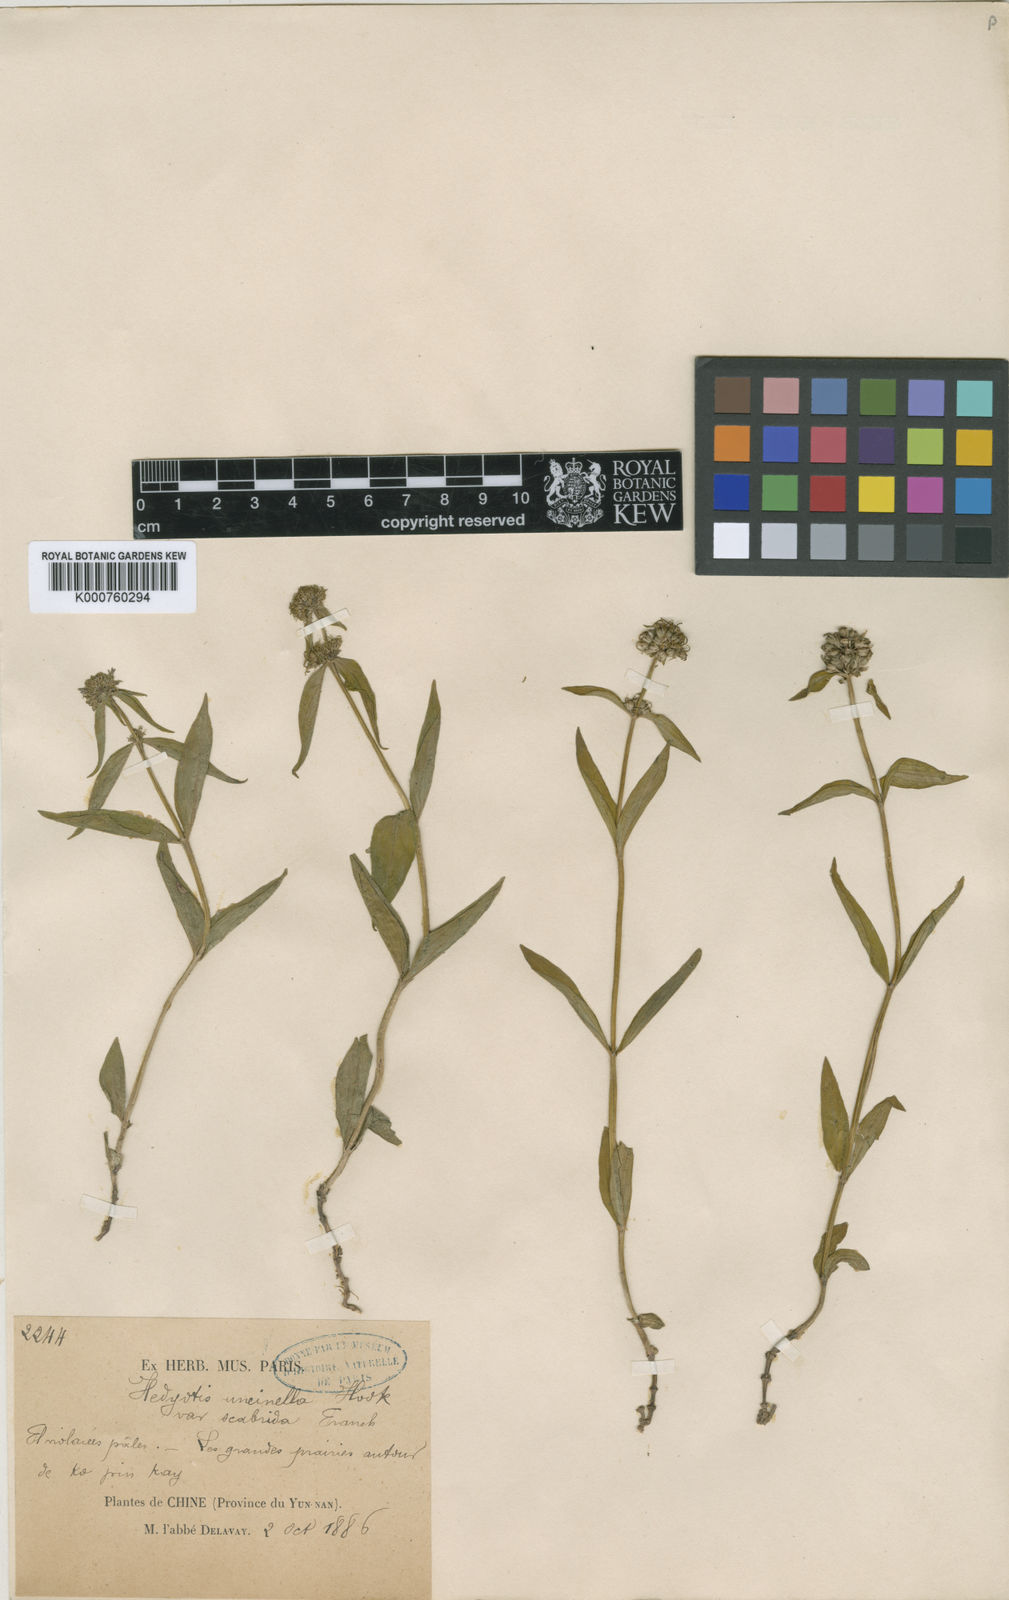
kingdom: Plantae
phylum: Tracheophyta
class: Magnoliopsida
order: Gentianales
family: Rubiaceae
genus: Hedyotis
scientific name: Hedyotis uncinella
